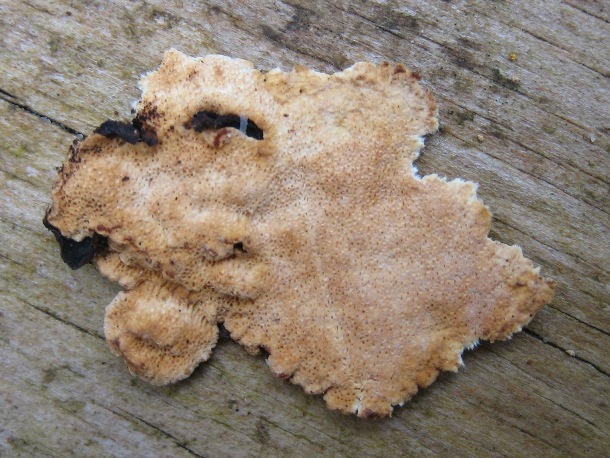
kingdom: Fungi
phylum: Basidiomycota
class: Agaricomycetes
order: Polyporales
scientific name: Polyporales
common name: poresvampordenen
